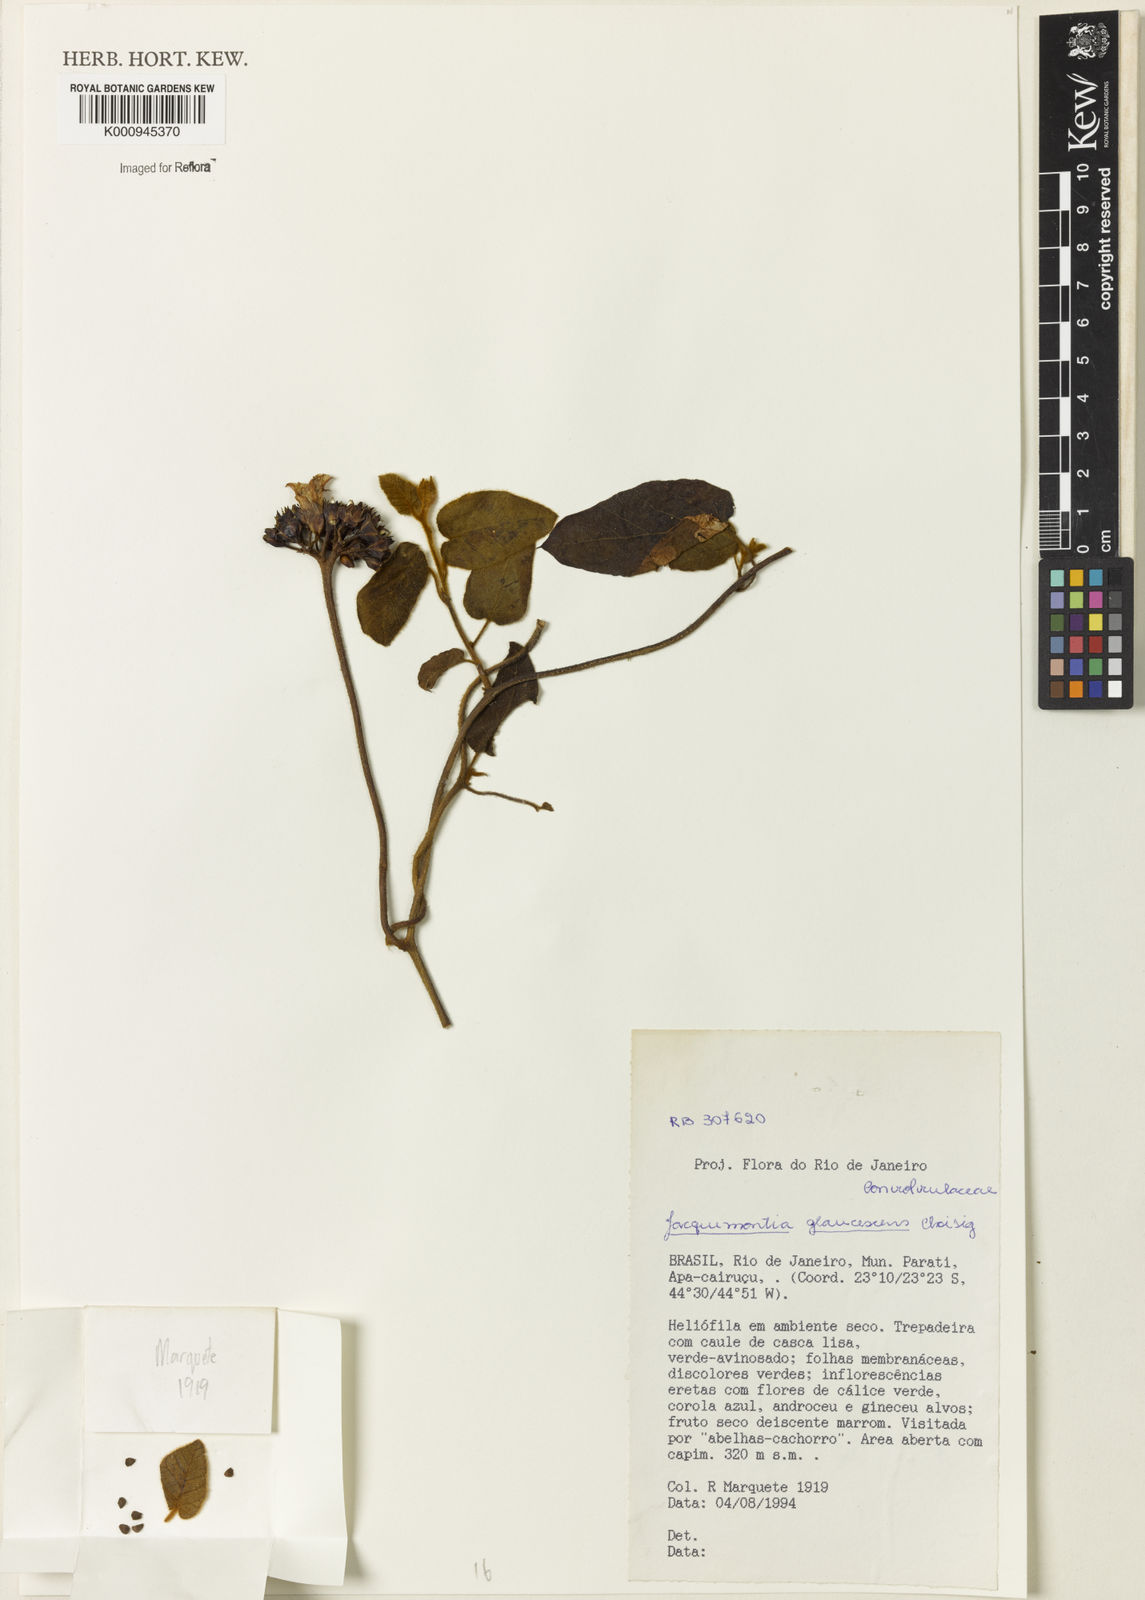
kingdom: Plantae
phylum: Tracheophyta
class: Magnoliopsida
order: Solanales
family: Convolvulaceae
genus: Jacquemontia
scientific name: Jacquemontia glaucescens
